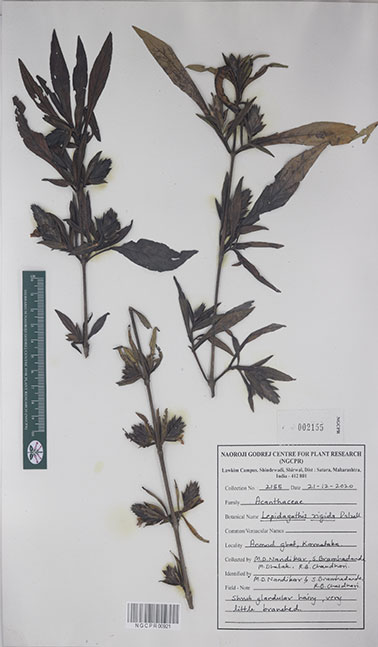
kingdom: Plantae
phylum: Tracheophyta
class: Magnoliopsida
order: Lamiales
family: Acanthaceae
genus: Lepidagathis
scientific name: Lepidagathis rigida
